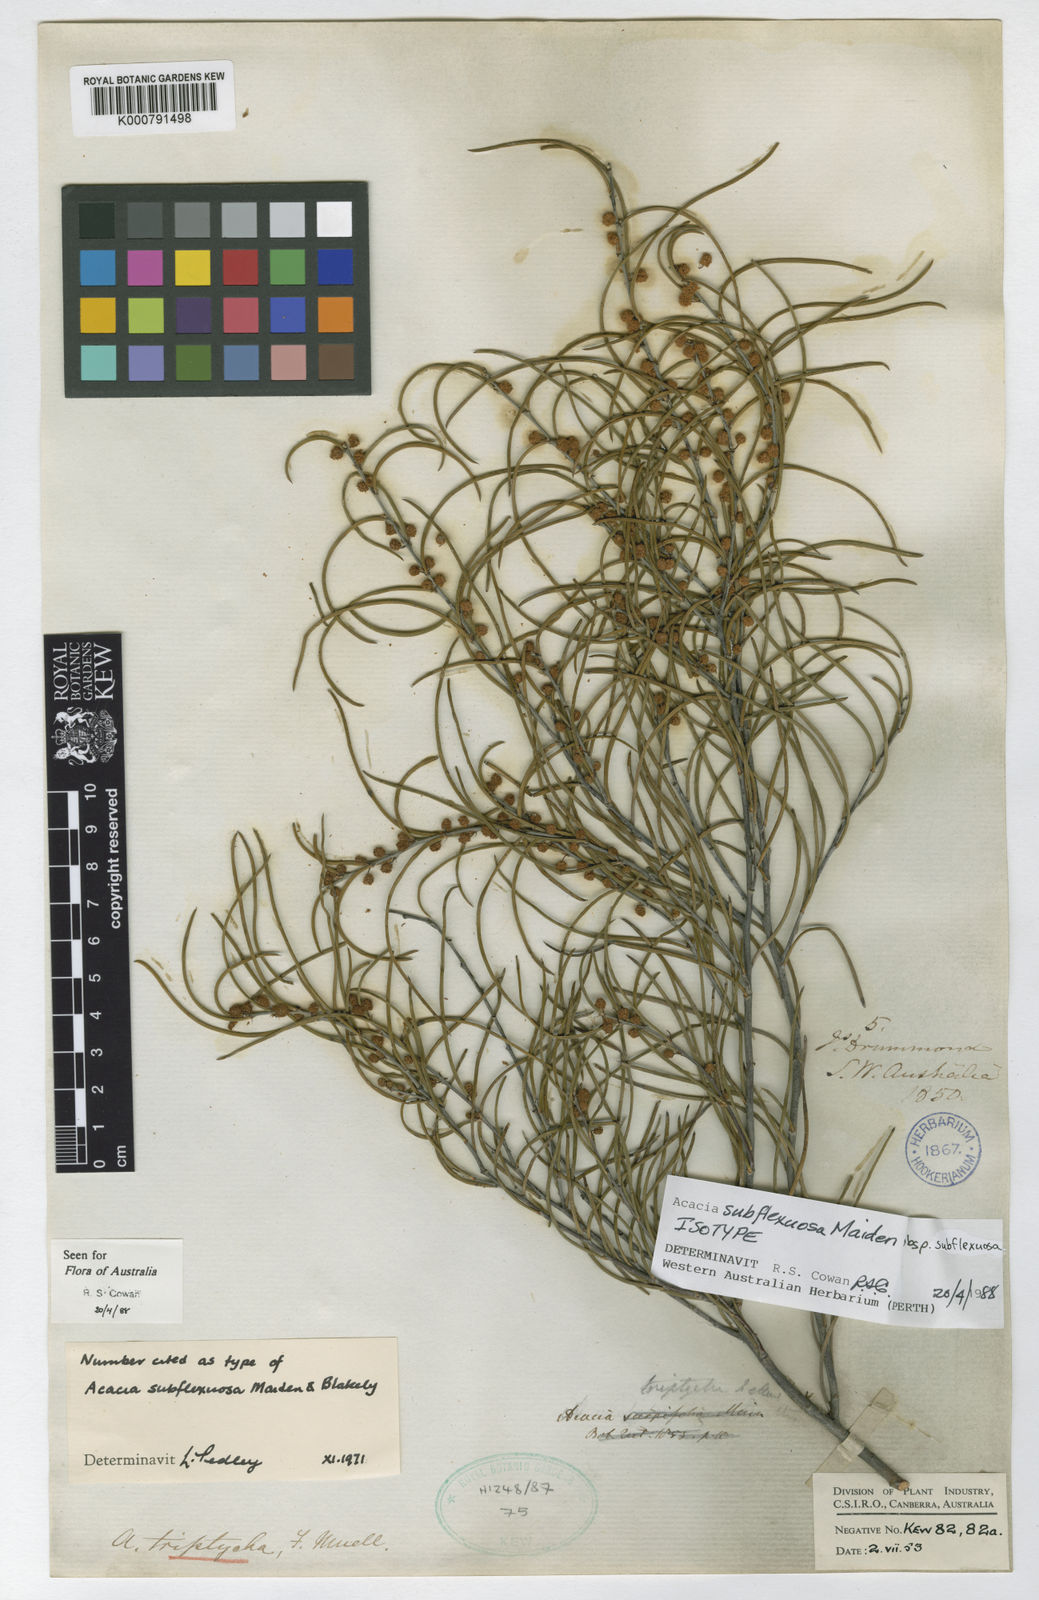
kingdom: Plantae
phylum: Tracheophyta
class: Magnoliopsida
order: Fabales
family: Fabaceae
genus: Acacia
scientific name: Acacia triptycha
